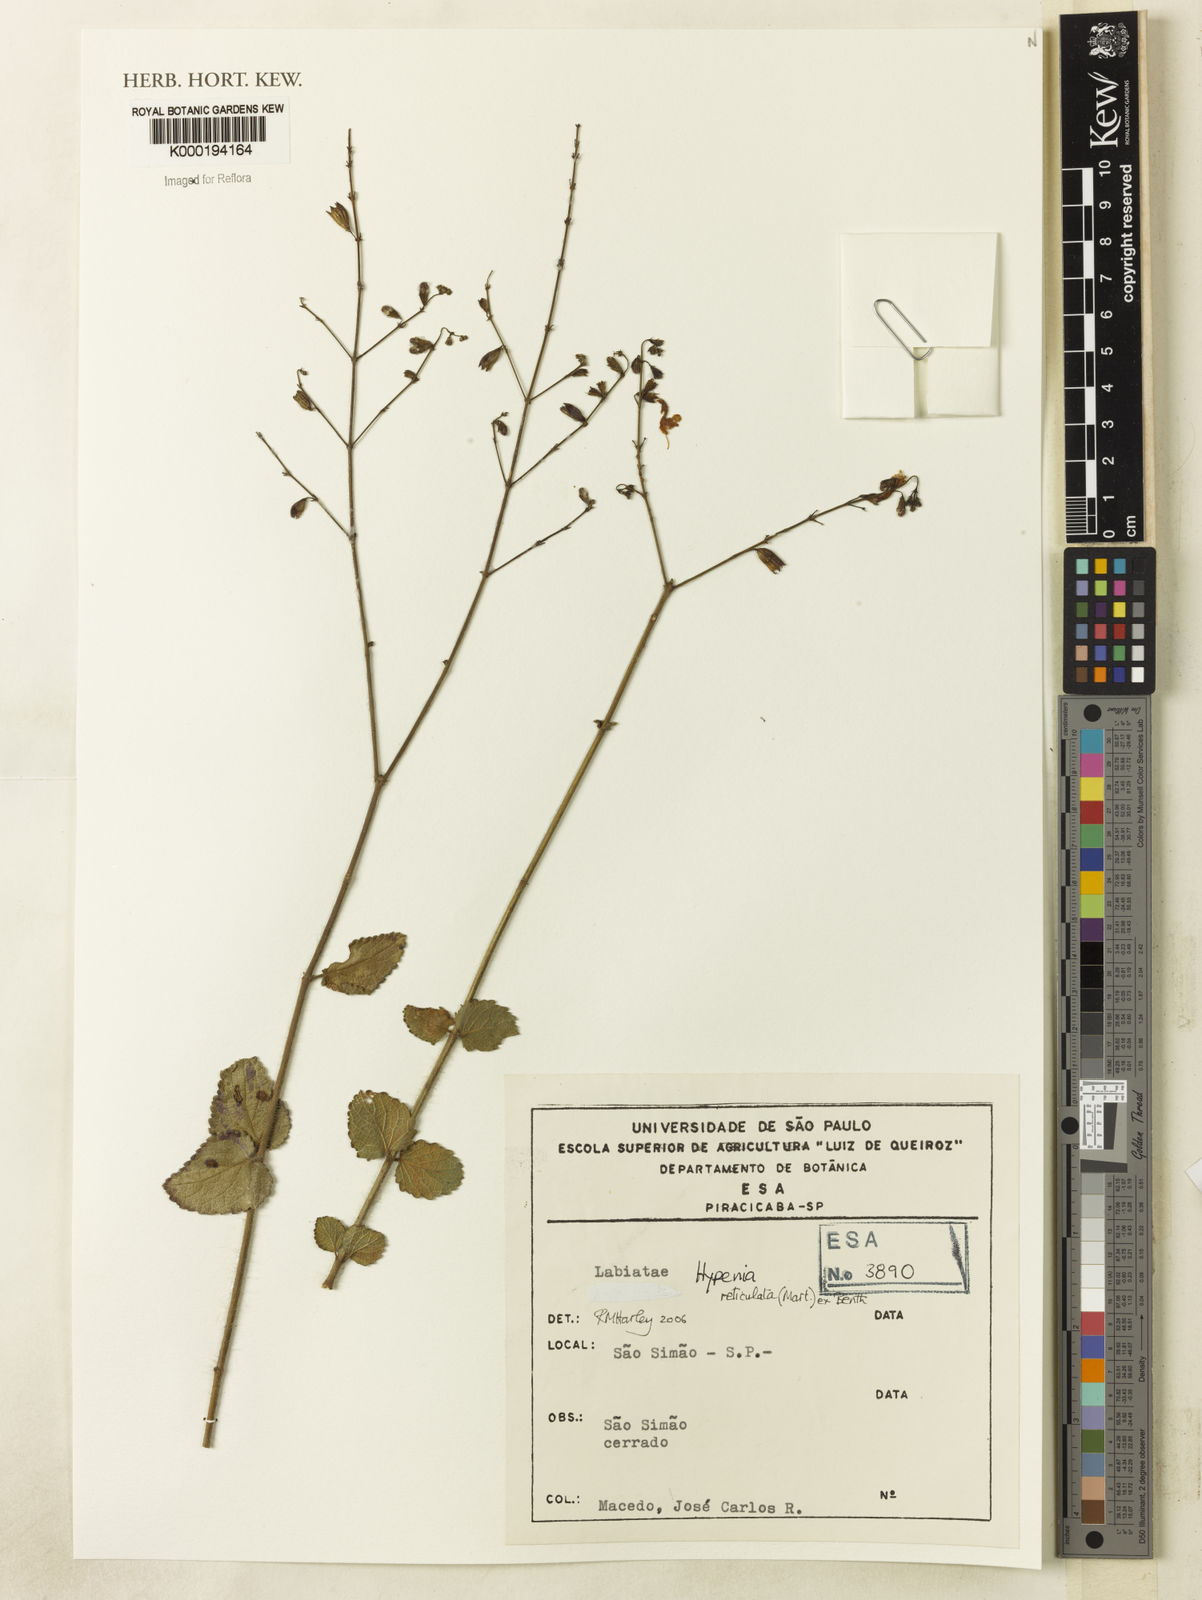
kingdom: Plantae
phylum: Tracheophyta
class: Magnoliopsida
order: Lamiales
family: Lamiaceae
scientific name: Lamiaceae
